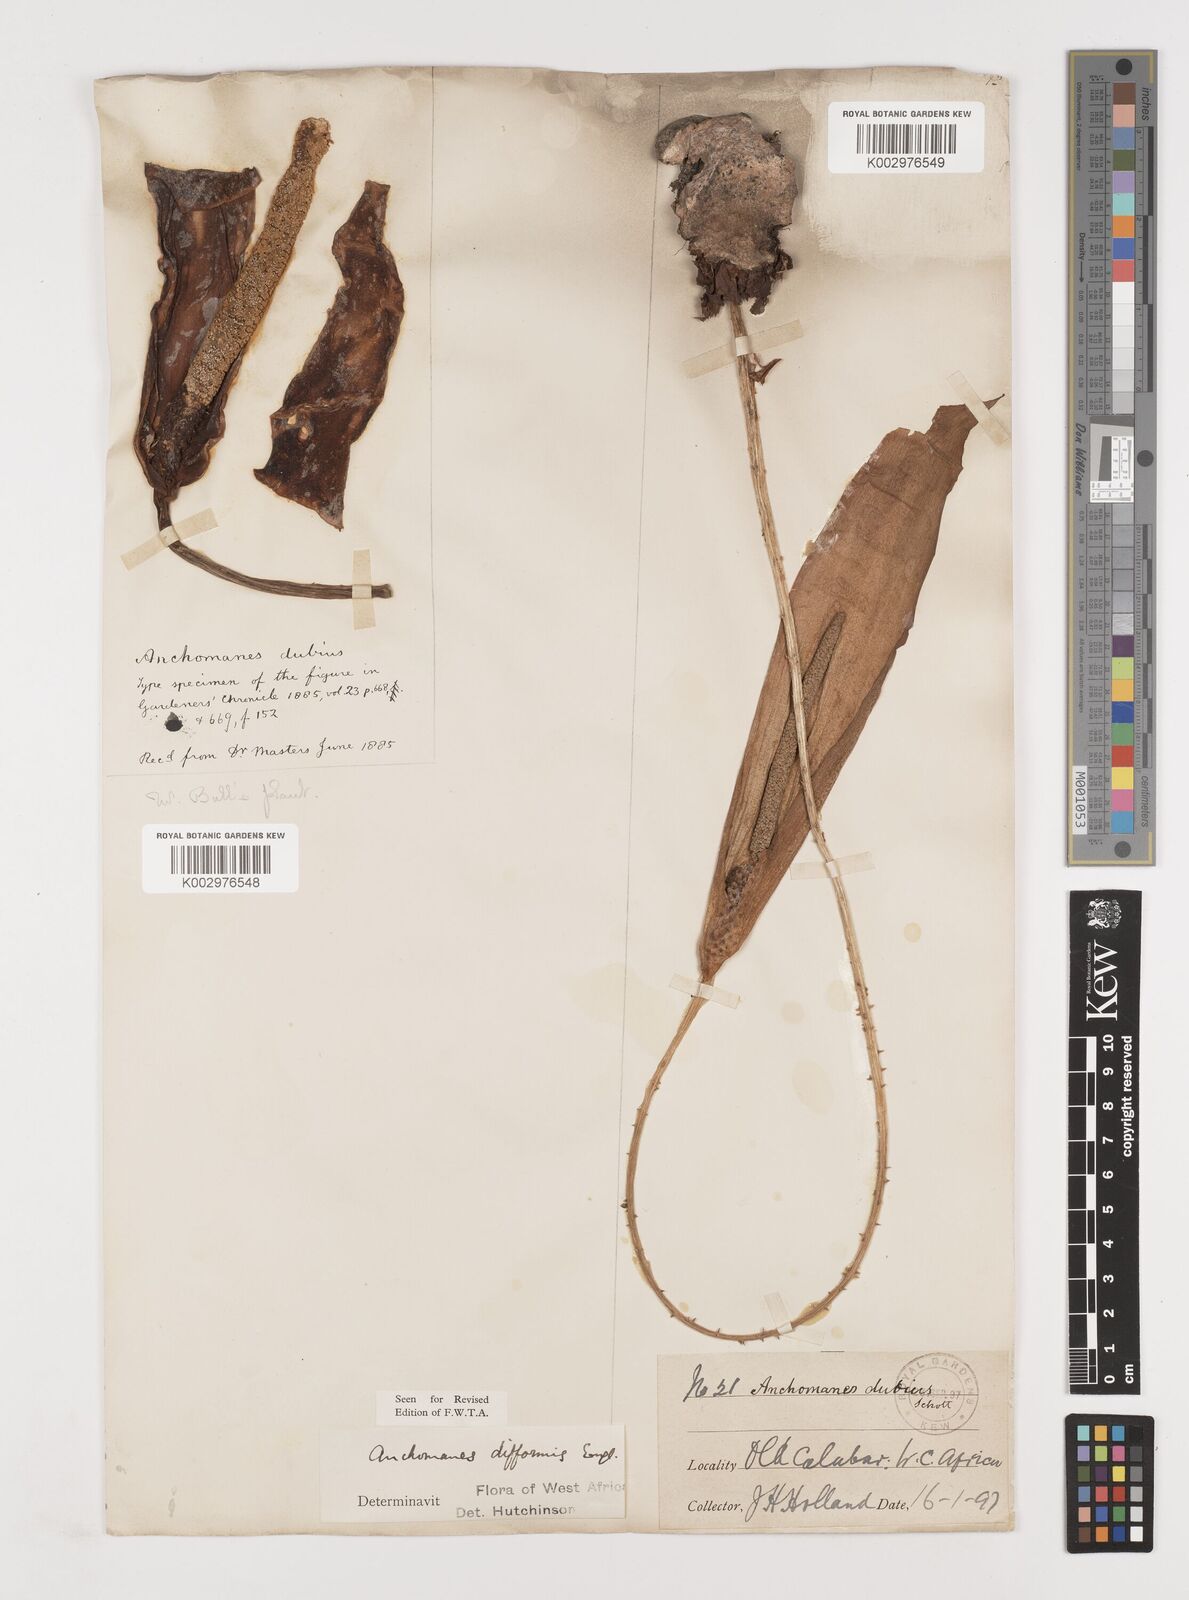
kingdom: Plantae
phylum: Tracheophyta
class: Liliopsida
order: Alismatales
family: Araceae
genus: Anchomanes
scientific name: Anchomanes difformis
